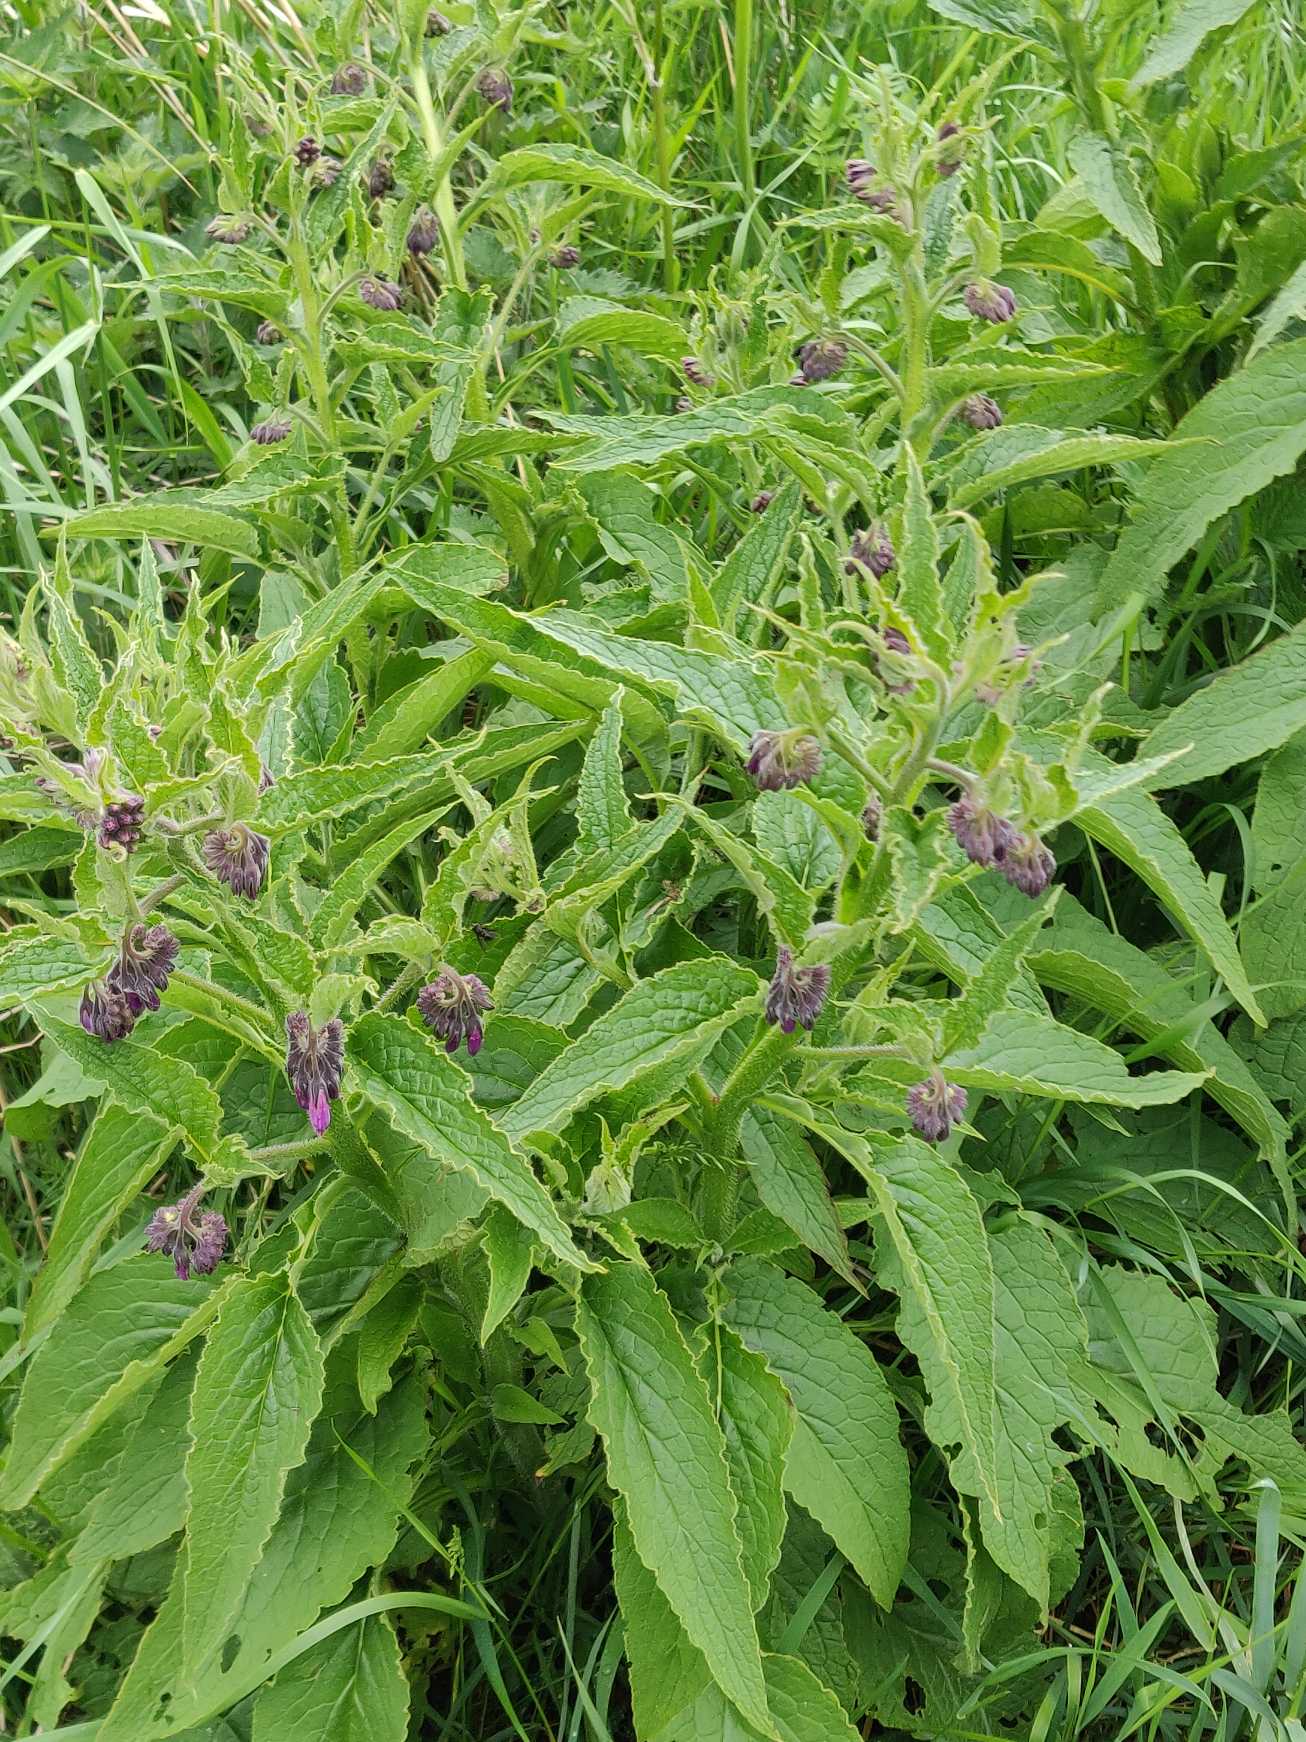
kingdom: Plantae
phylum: Tracheophyta
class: Magnoliopsida
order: Boraginales
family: Boraginaceae
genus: Symphytum
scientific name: Symphytum uplandicum
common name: Foder-kulsukker
